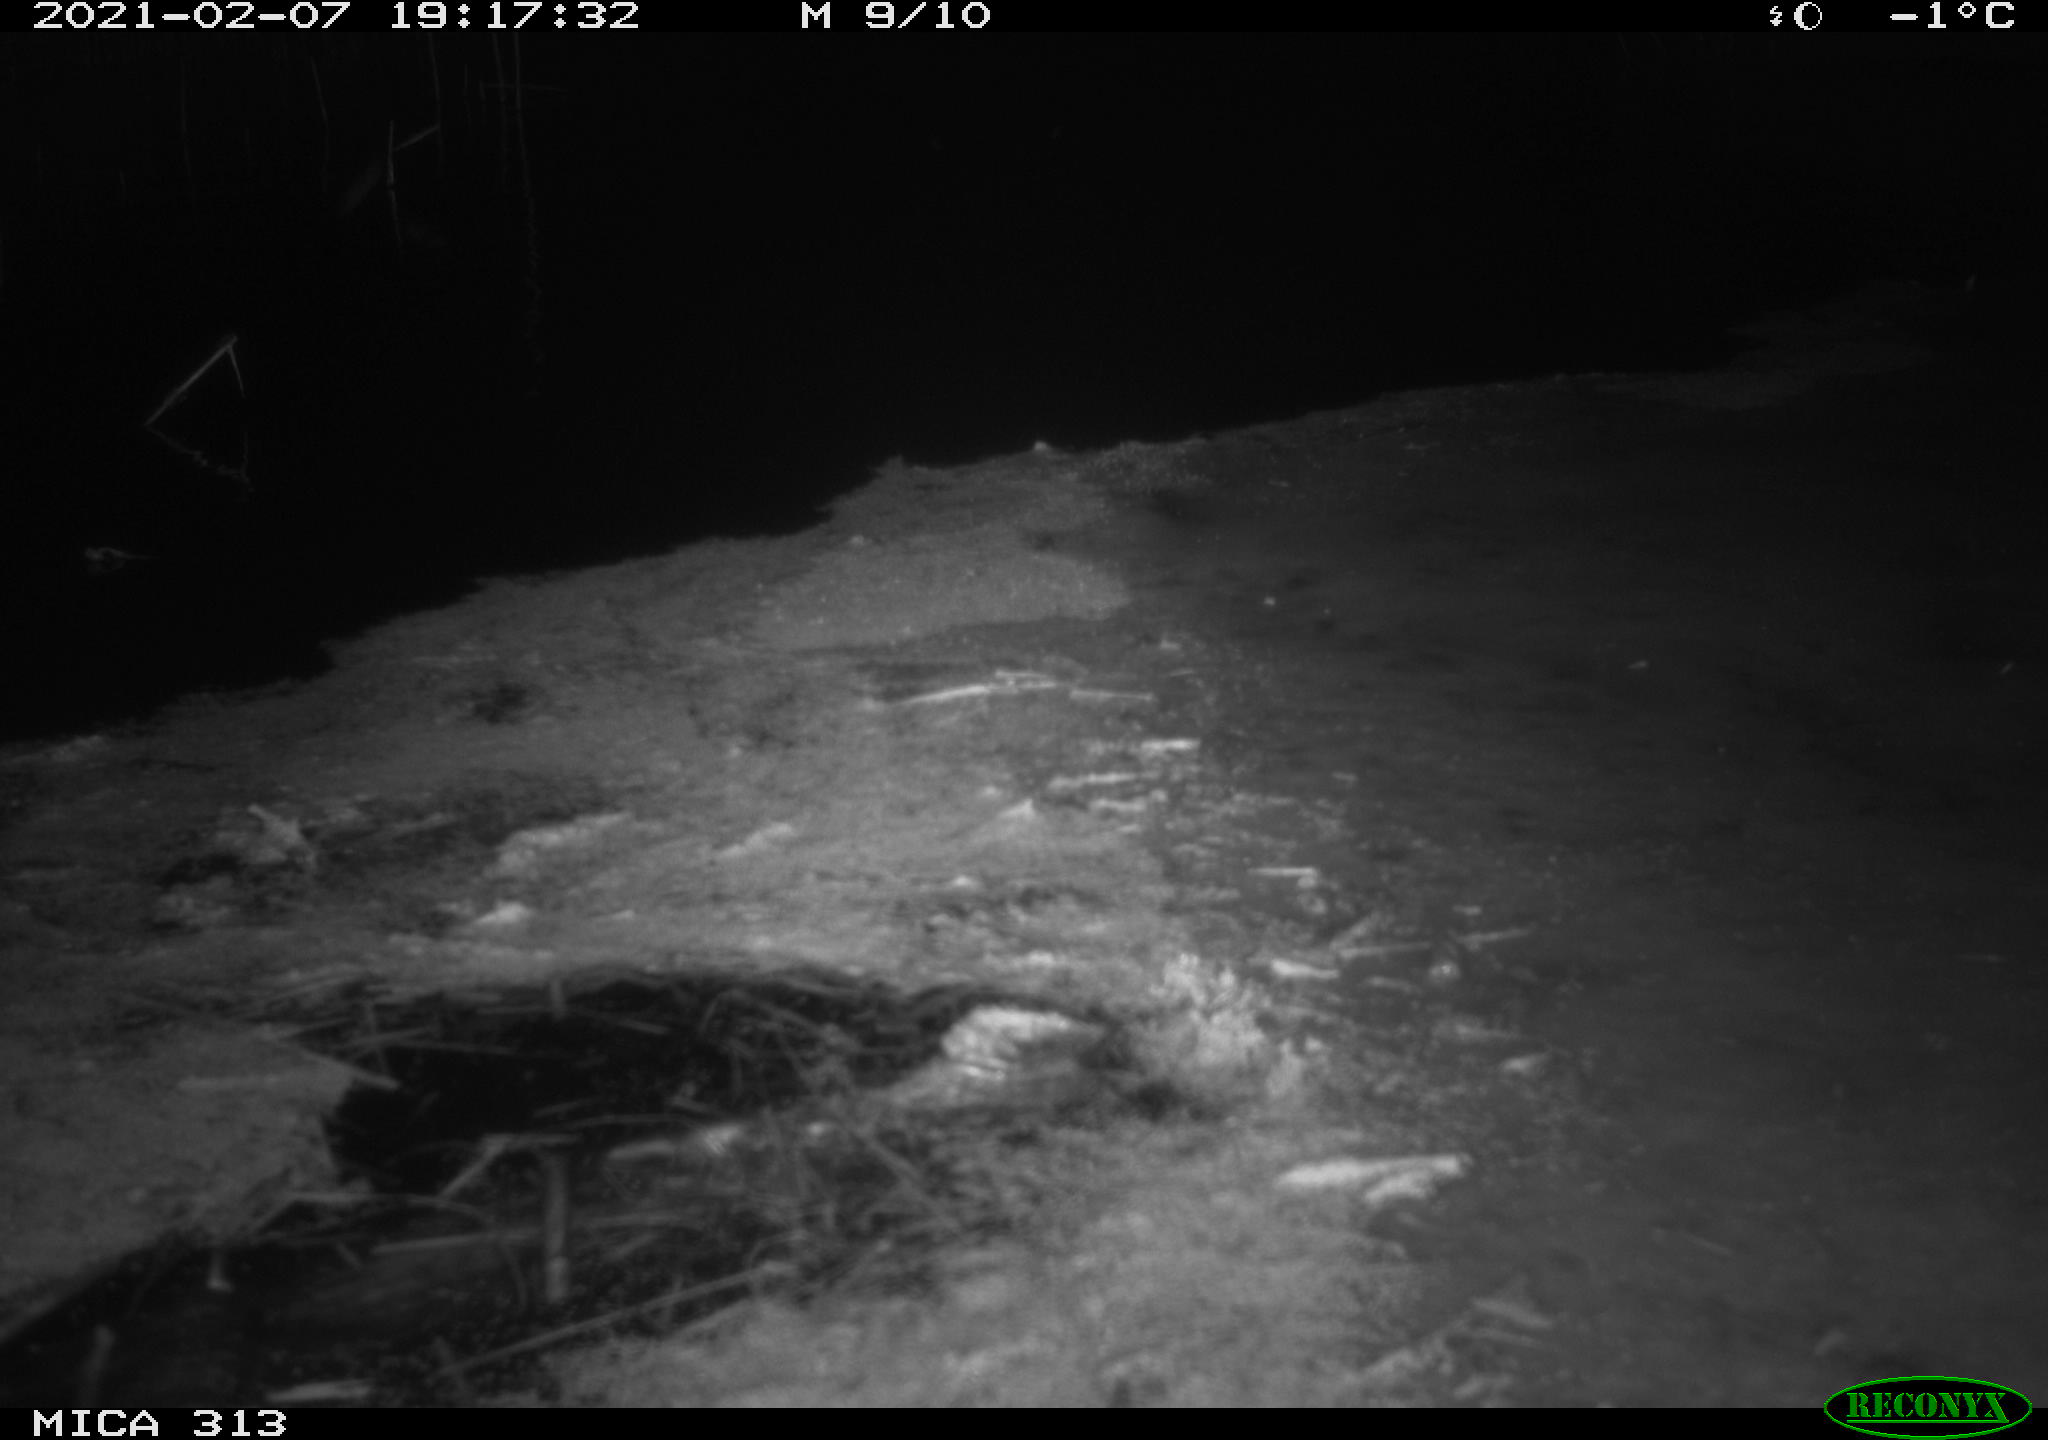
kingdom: Animalia
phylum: Chordata
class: Aves
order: Gruiformes
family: Rallidae
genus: Gallinula
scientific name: Gallinula chloropus
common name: Common moorhen
